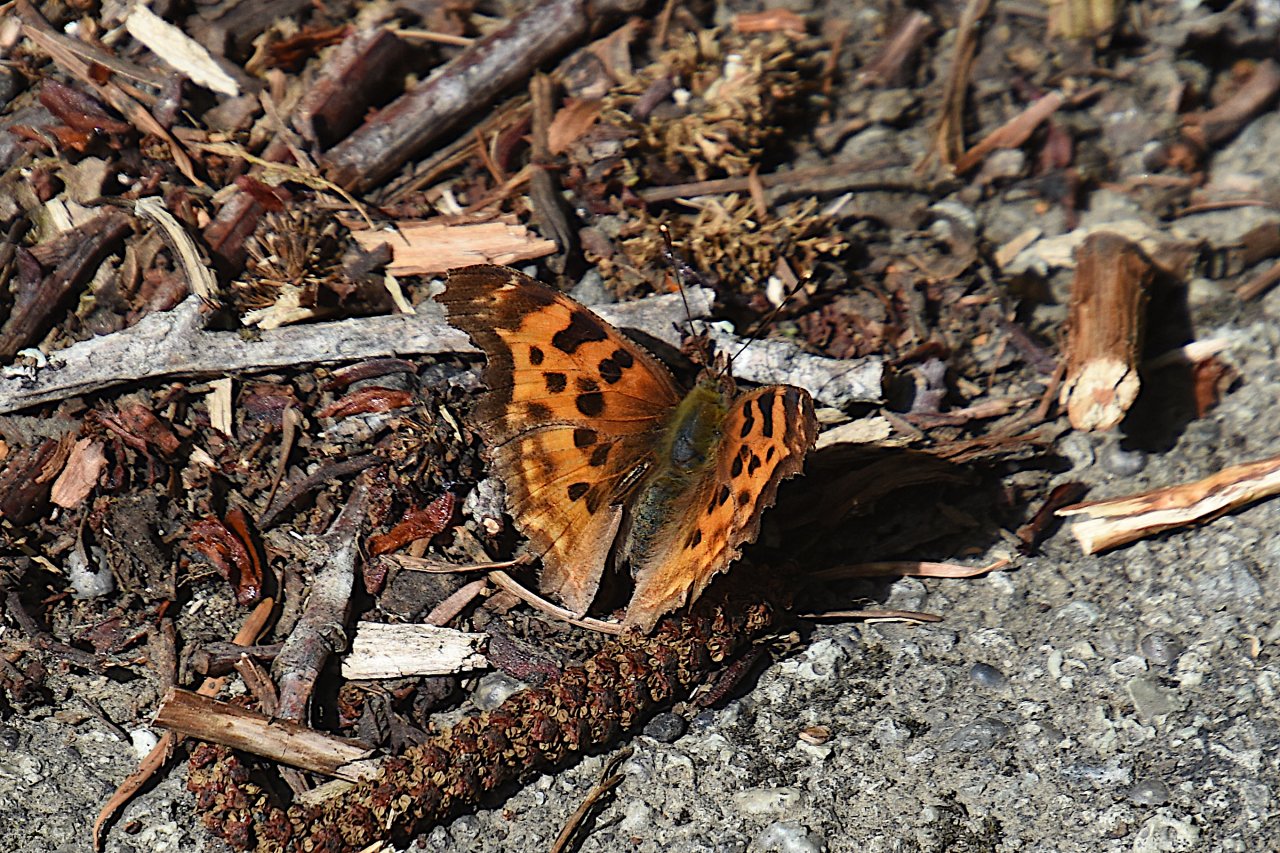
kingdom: Animalia
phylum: Arthropoda
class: Insecta
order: Lepidoptera
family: Nymphalidae
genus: Polygonia
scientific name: Polygonia satyrus
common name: Satyr Comma
